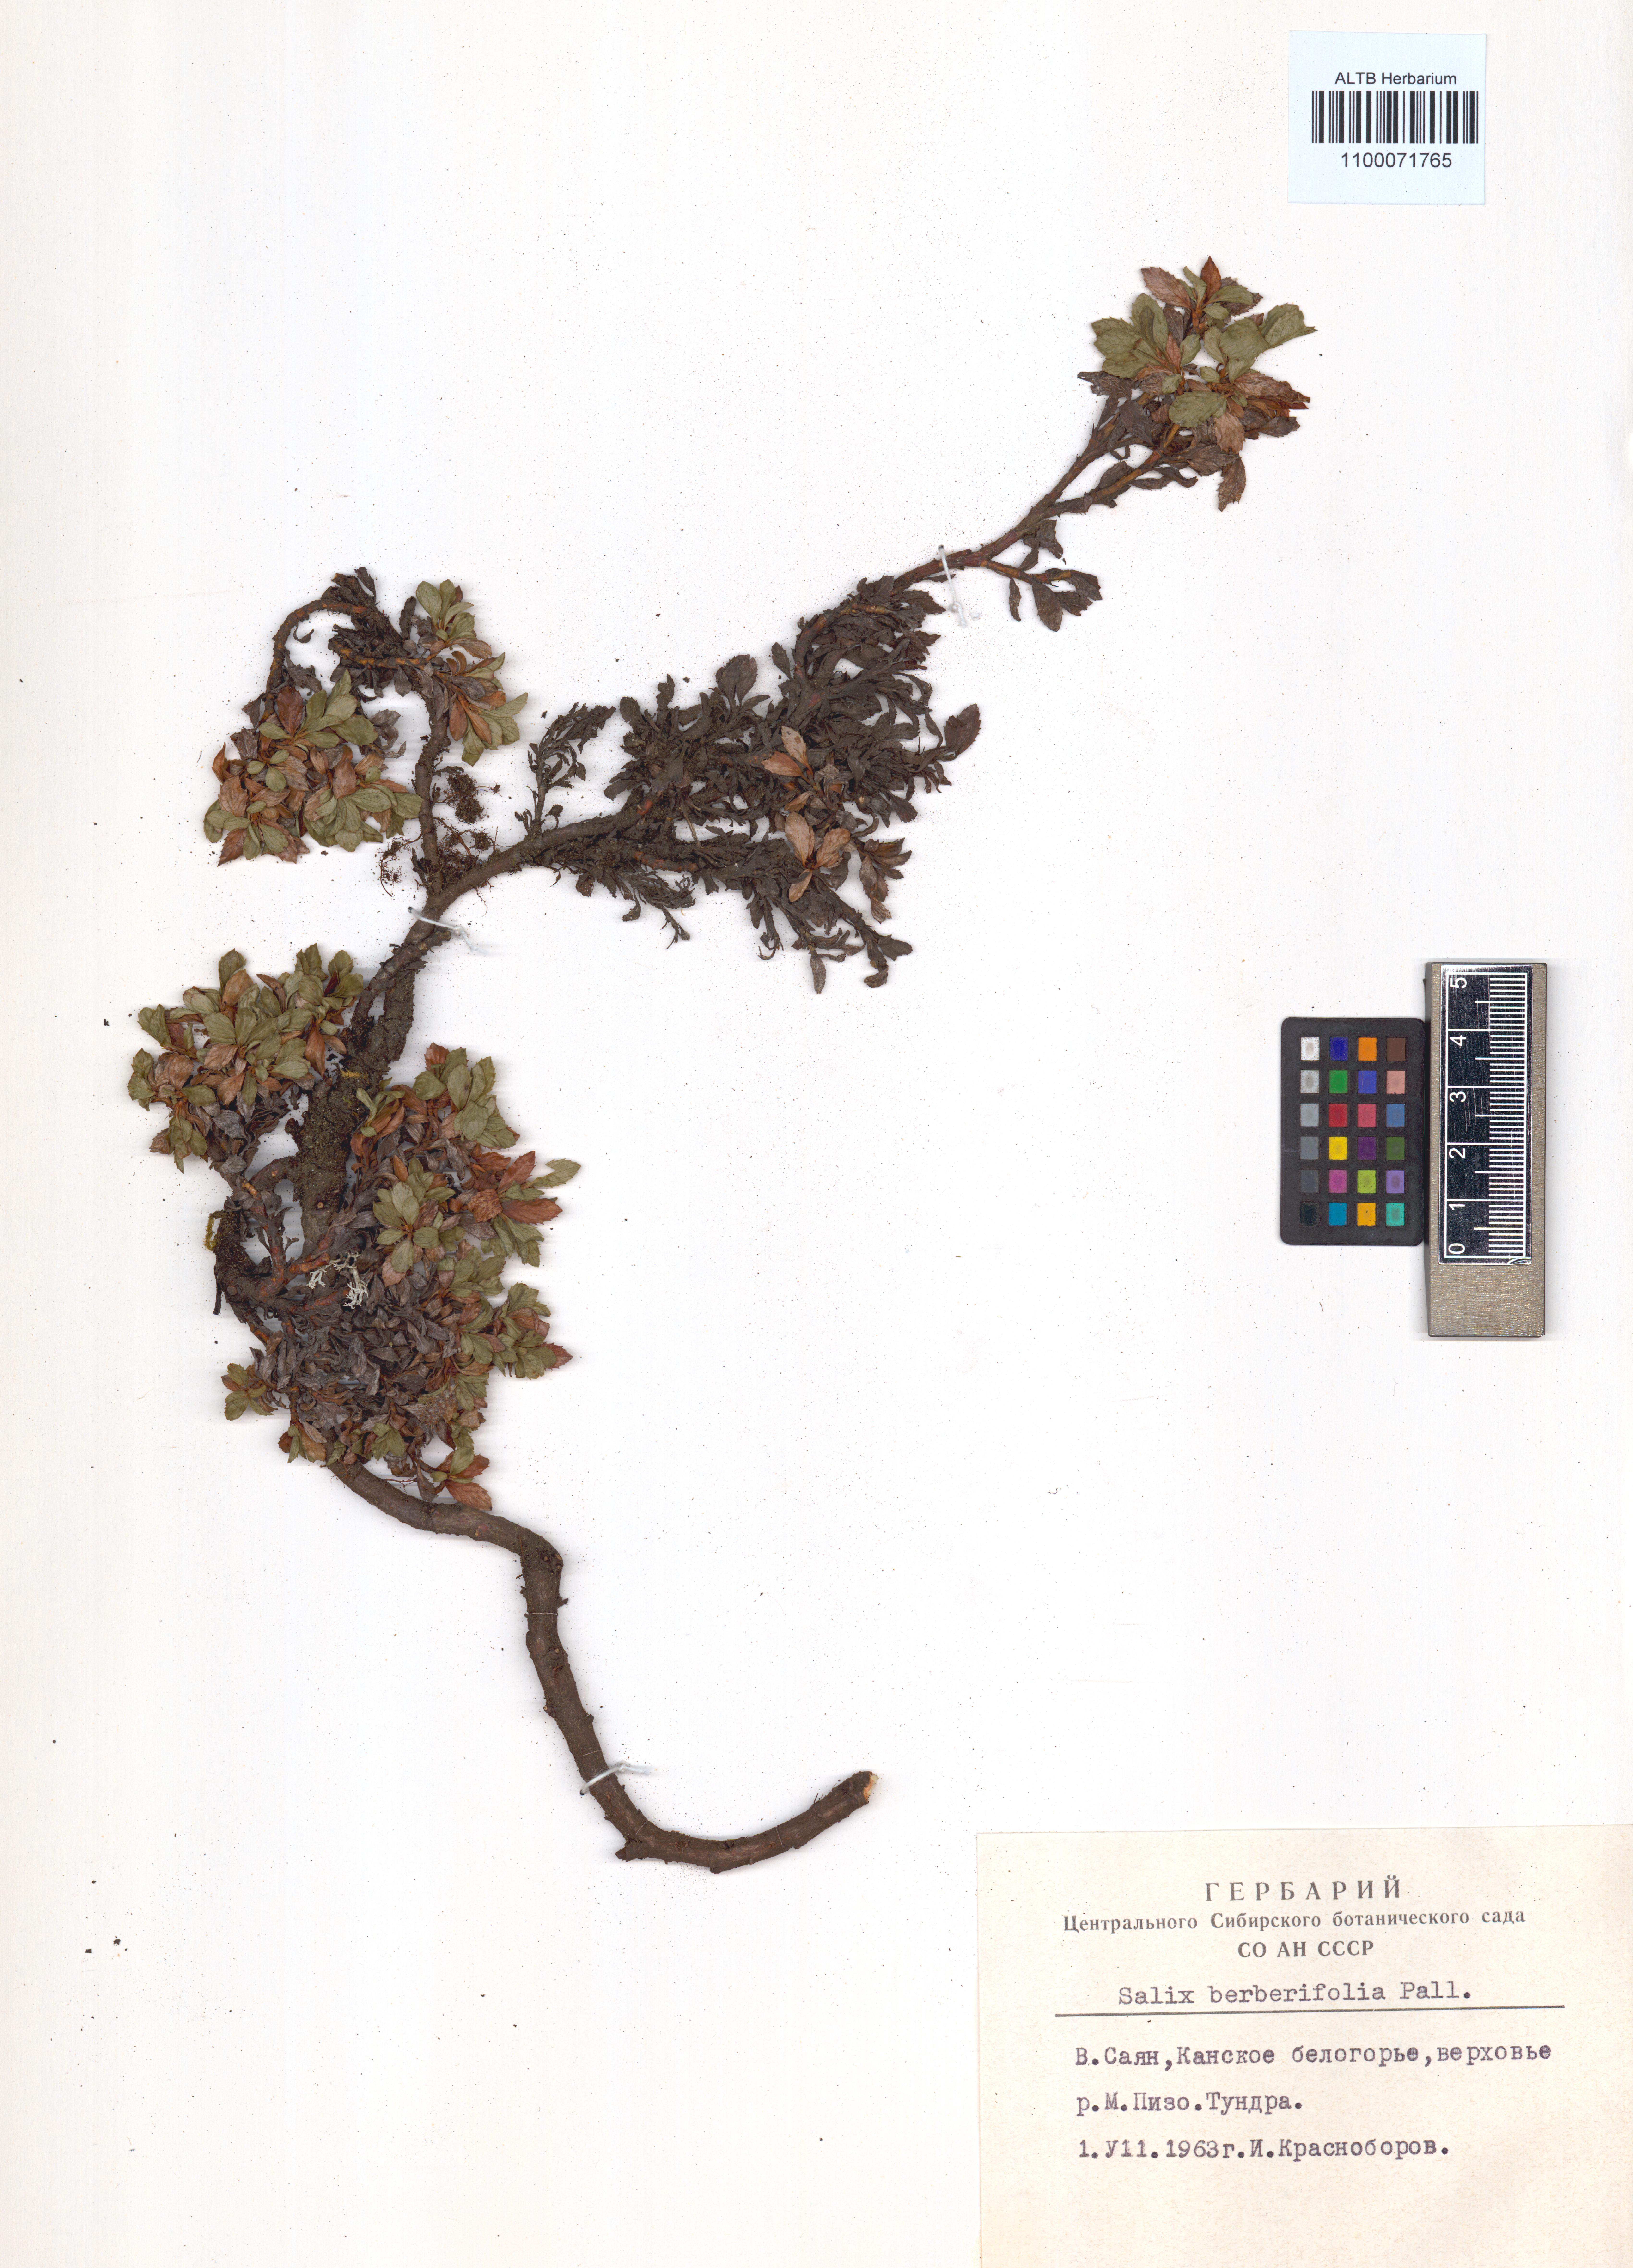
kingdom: Plantae
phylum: Tracheophyta
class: Magnoliopsida
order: Malpighiales
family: Salicaceae
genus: Salix
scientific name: Salix berberifolia
